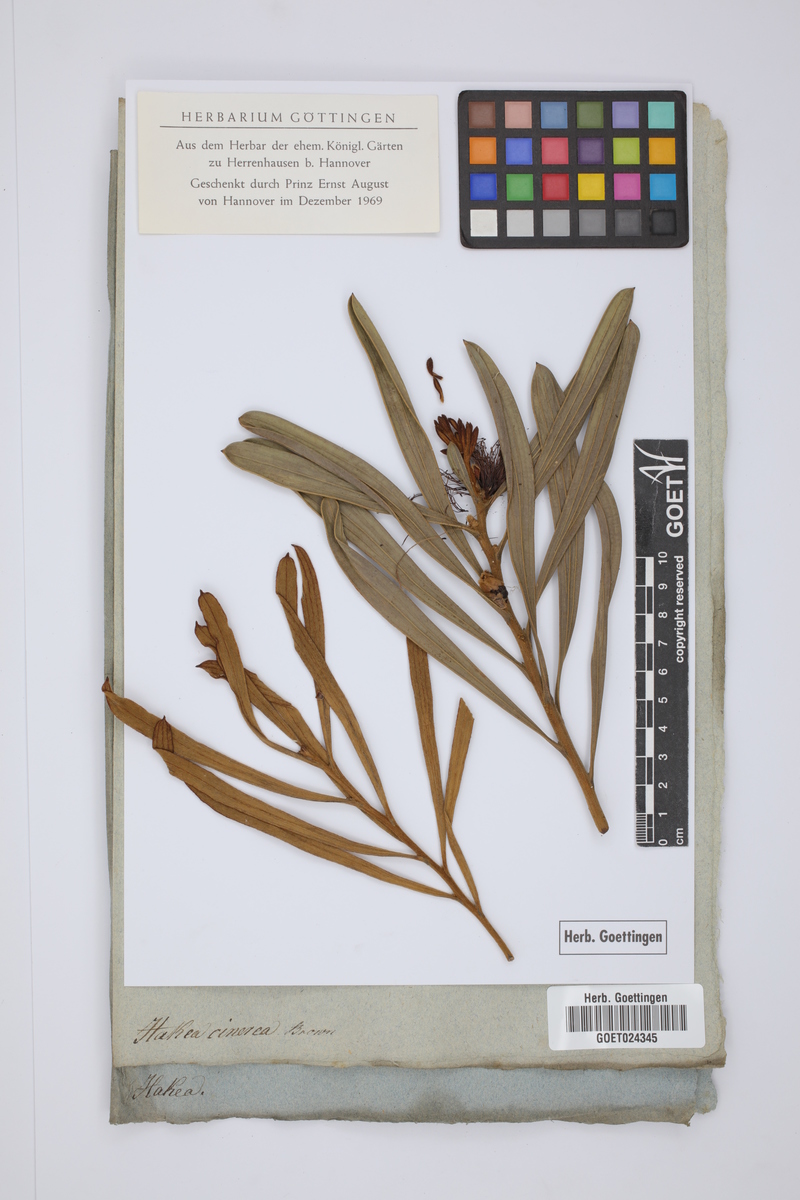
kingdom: Plantae
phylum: Tracheophyta
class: Magnoliopsida
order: Proteales
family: Proteaceae
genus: Hakea
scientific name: Hakea cinerea
